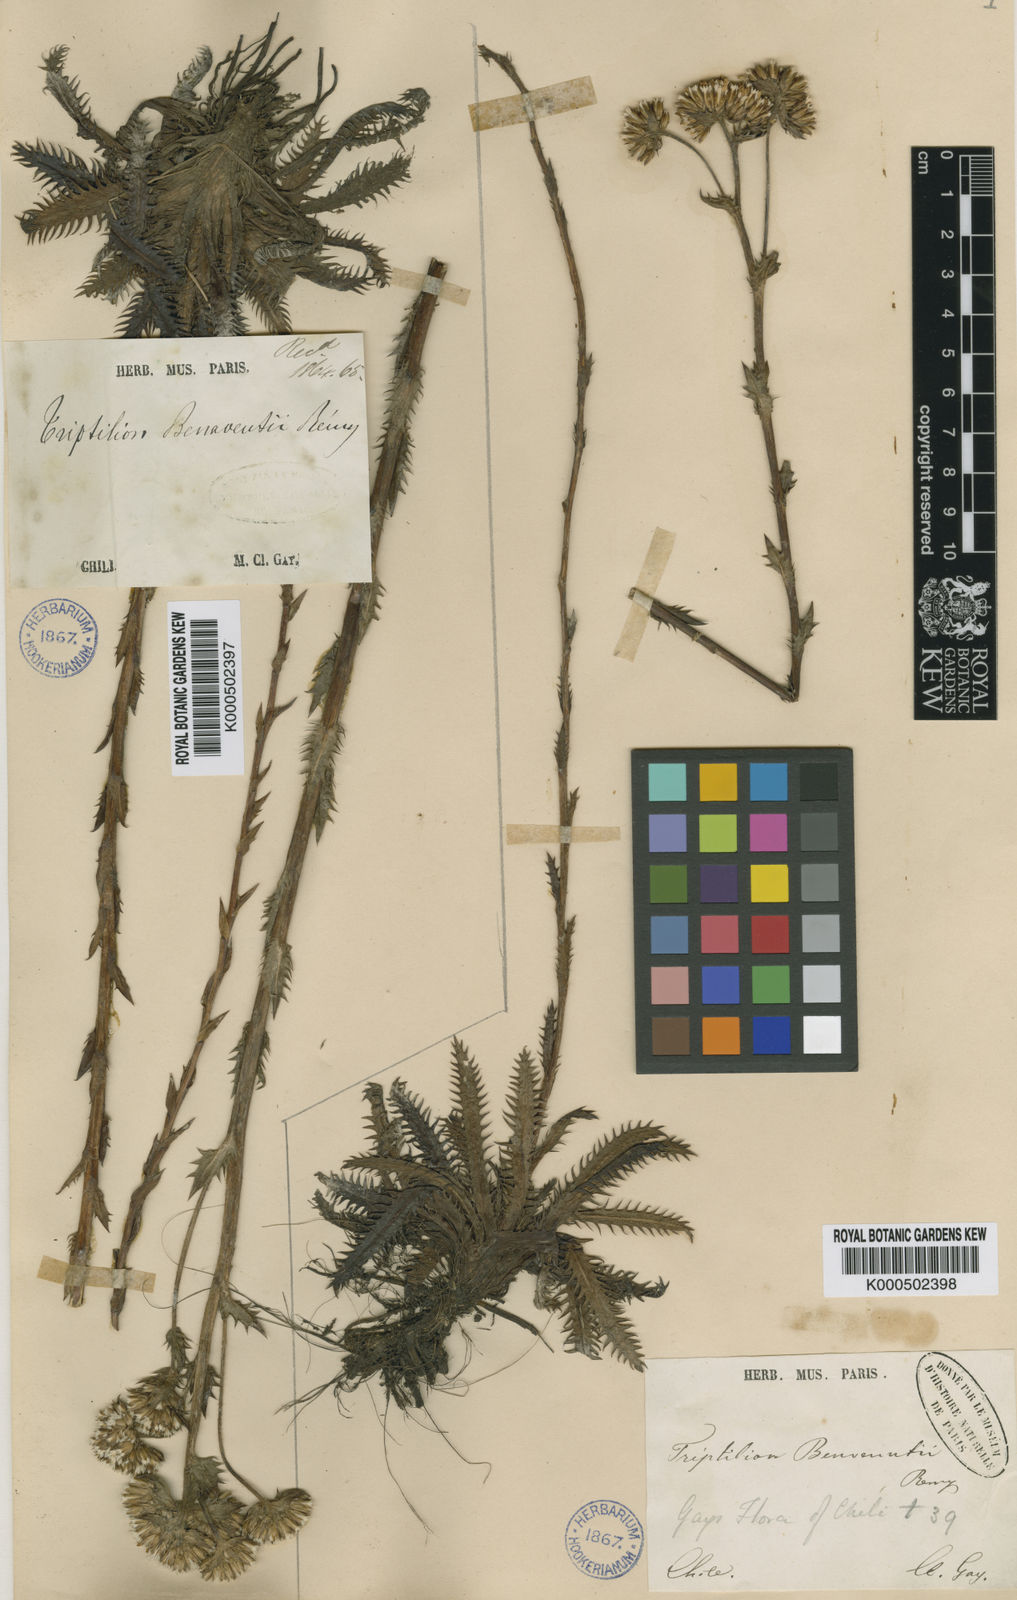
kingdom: Plantae
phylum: Tracheophyta
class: Magnoliopsida
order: Asterales
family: Asteraceae
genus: Triptilion
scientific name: Triptilion benaventii
